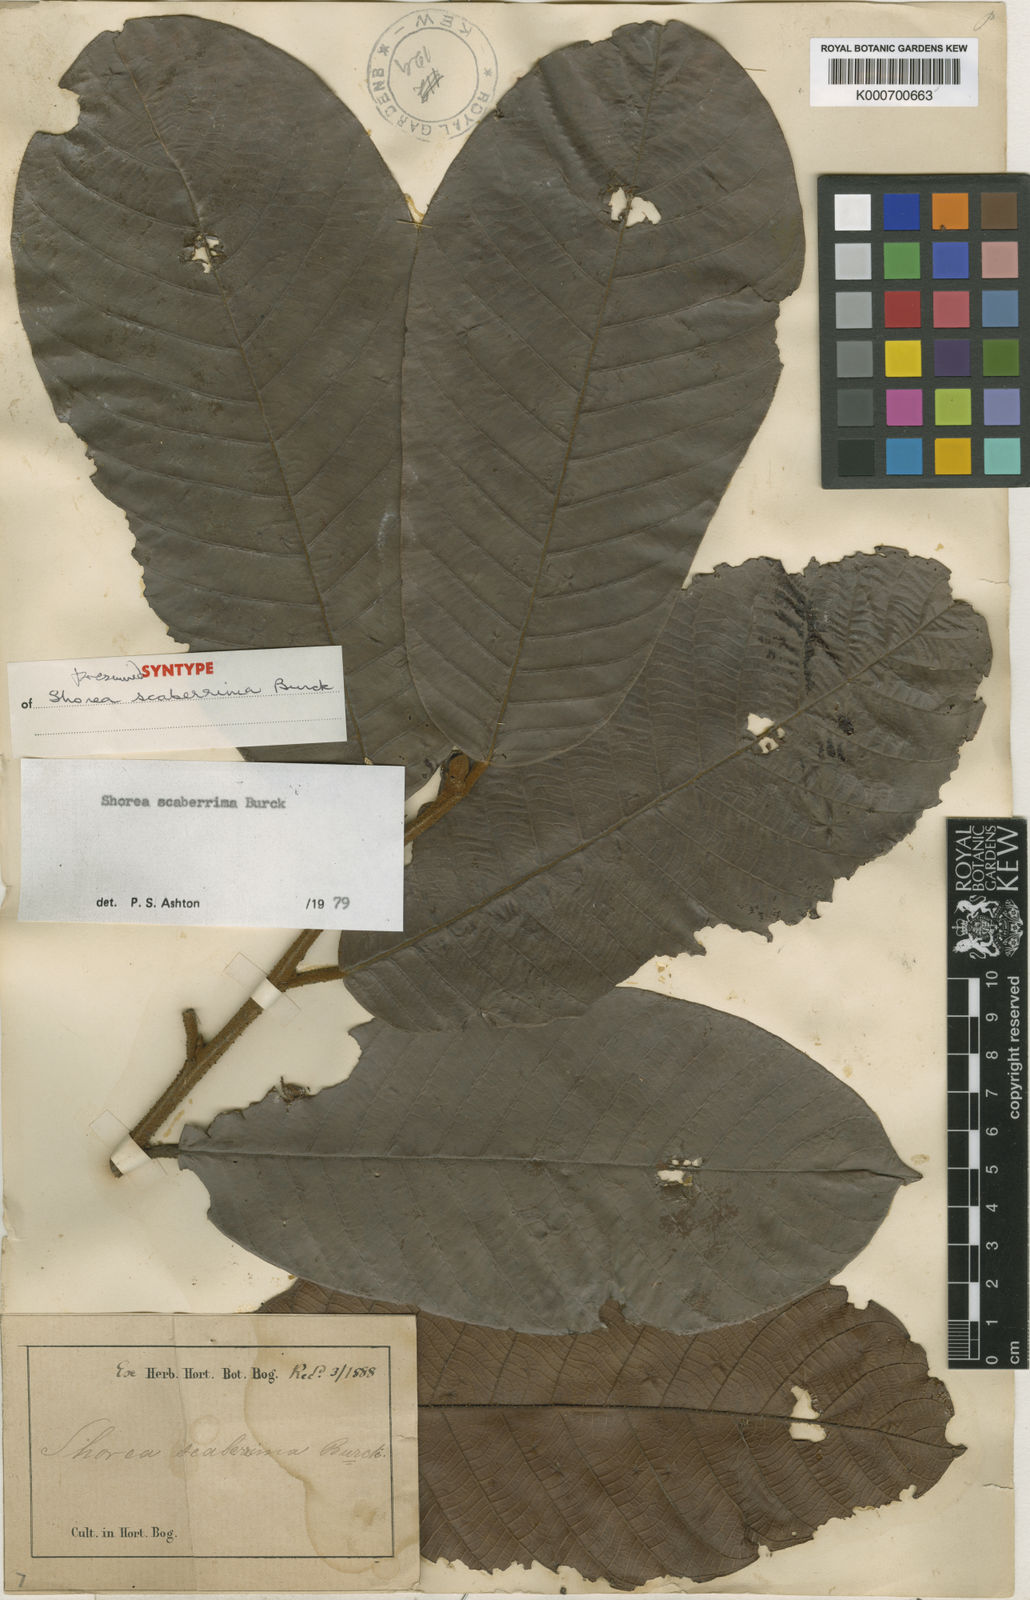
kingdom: Plantae
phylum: Tracheophyta
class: Magnoliopsida
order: Malvales
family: Dipterocarpaceae
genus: Shorea
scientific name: Shorea scaberrima
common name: Red meranti
